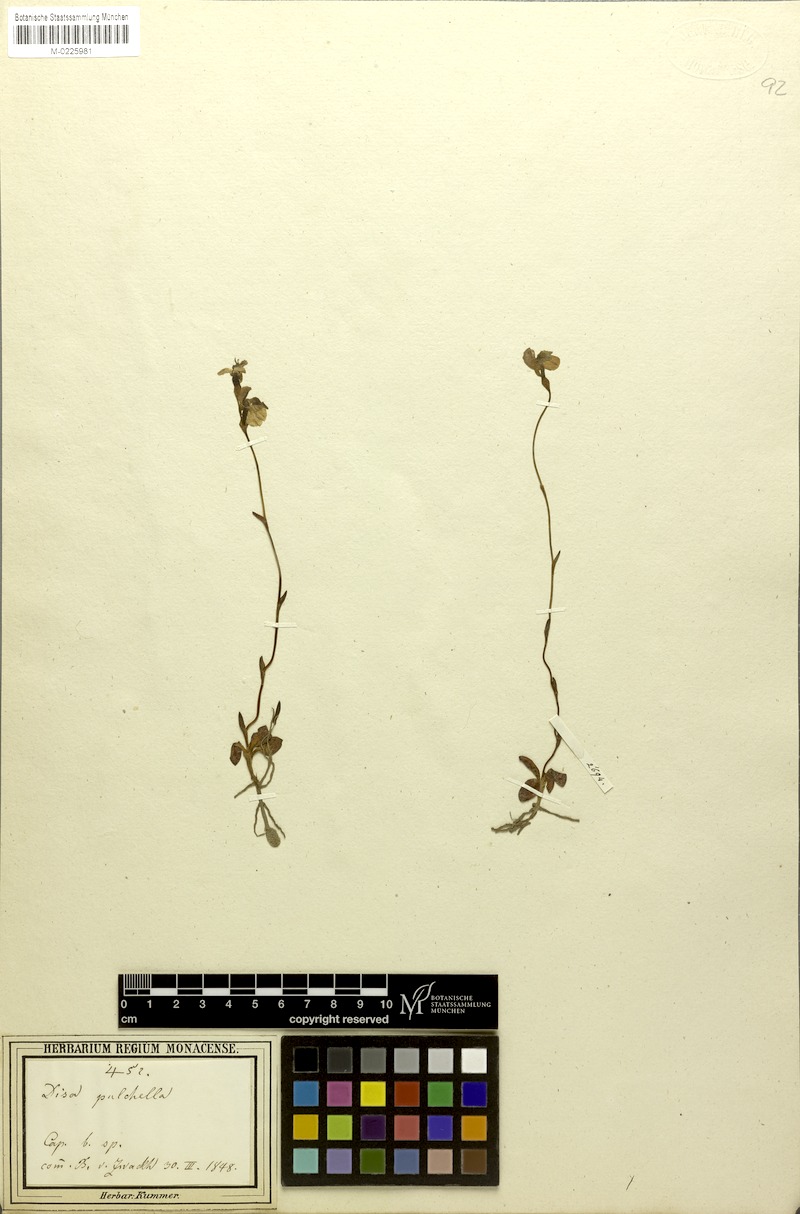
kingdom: Plantae
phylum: Tracheophyta
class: Liliopsida
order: Asparagales
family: Orchidaceae
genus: Disa
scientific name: Disa flexuosa
